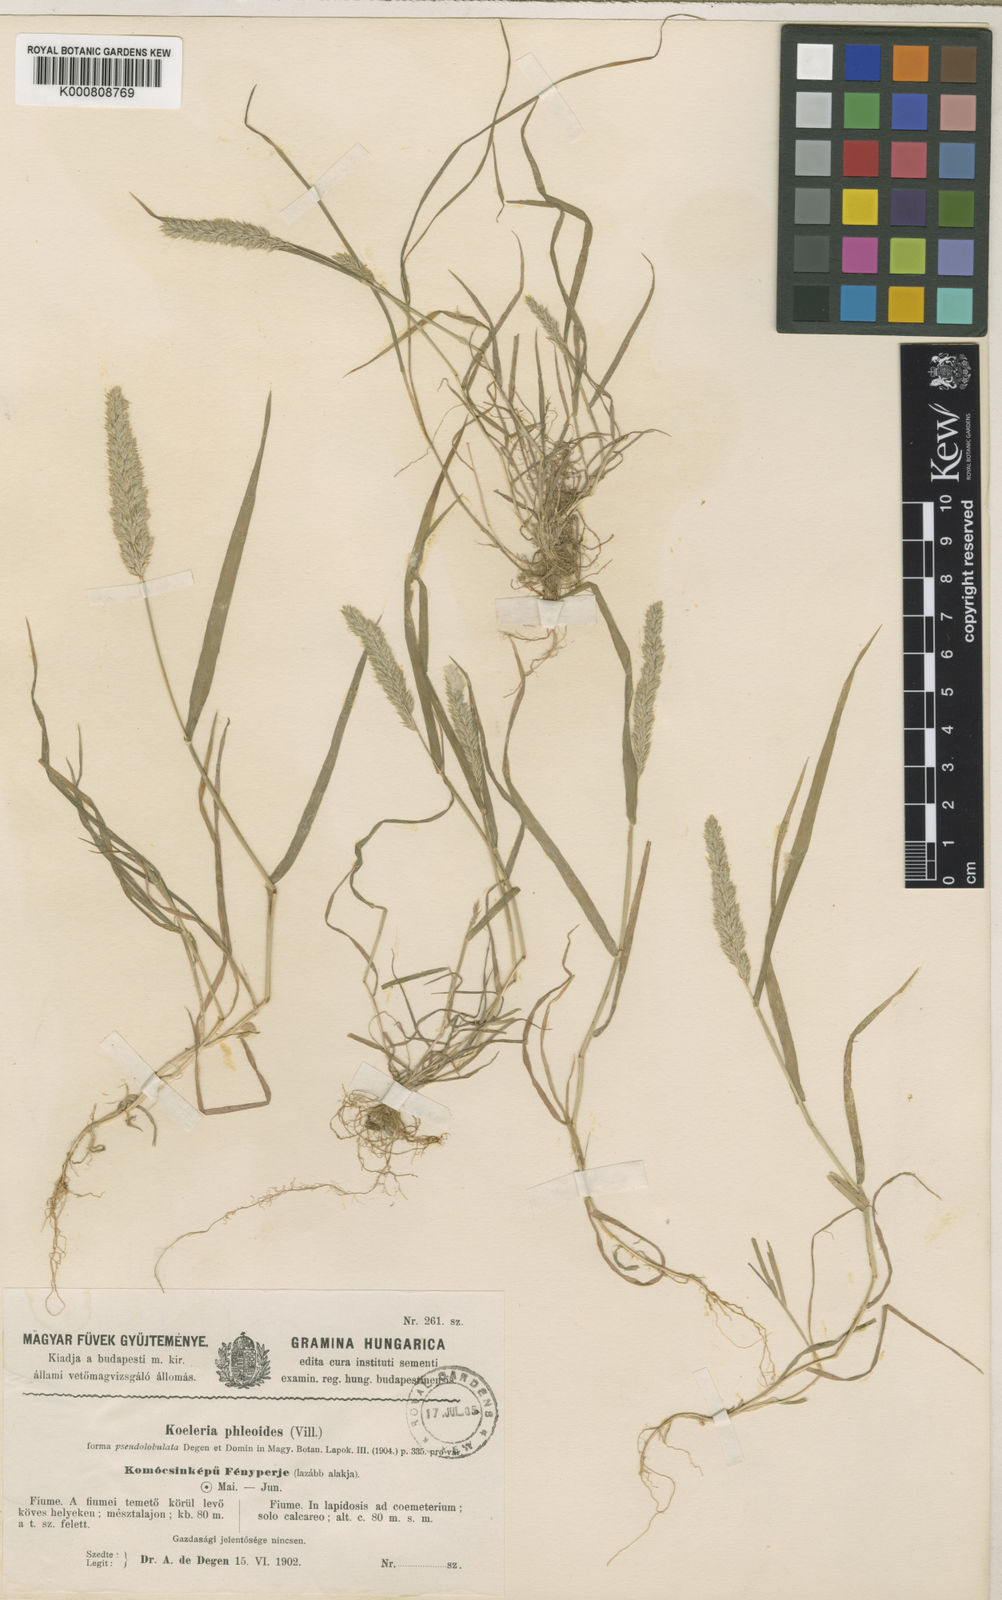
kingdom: Plantae
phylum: Tracheophyta
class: Liliopsida
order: Poales
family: Poaceae
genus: Rostraria
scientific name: Rostraria cristata
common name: Mediterranean hair-grass
